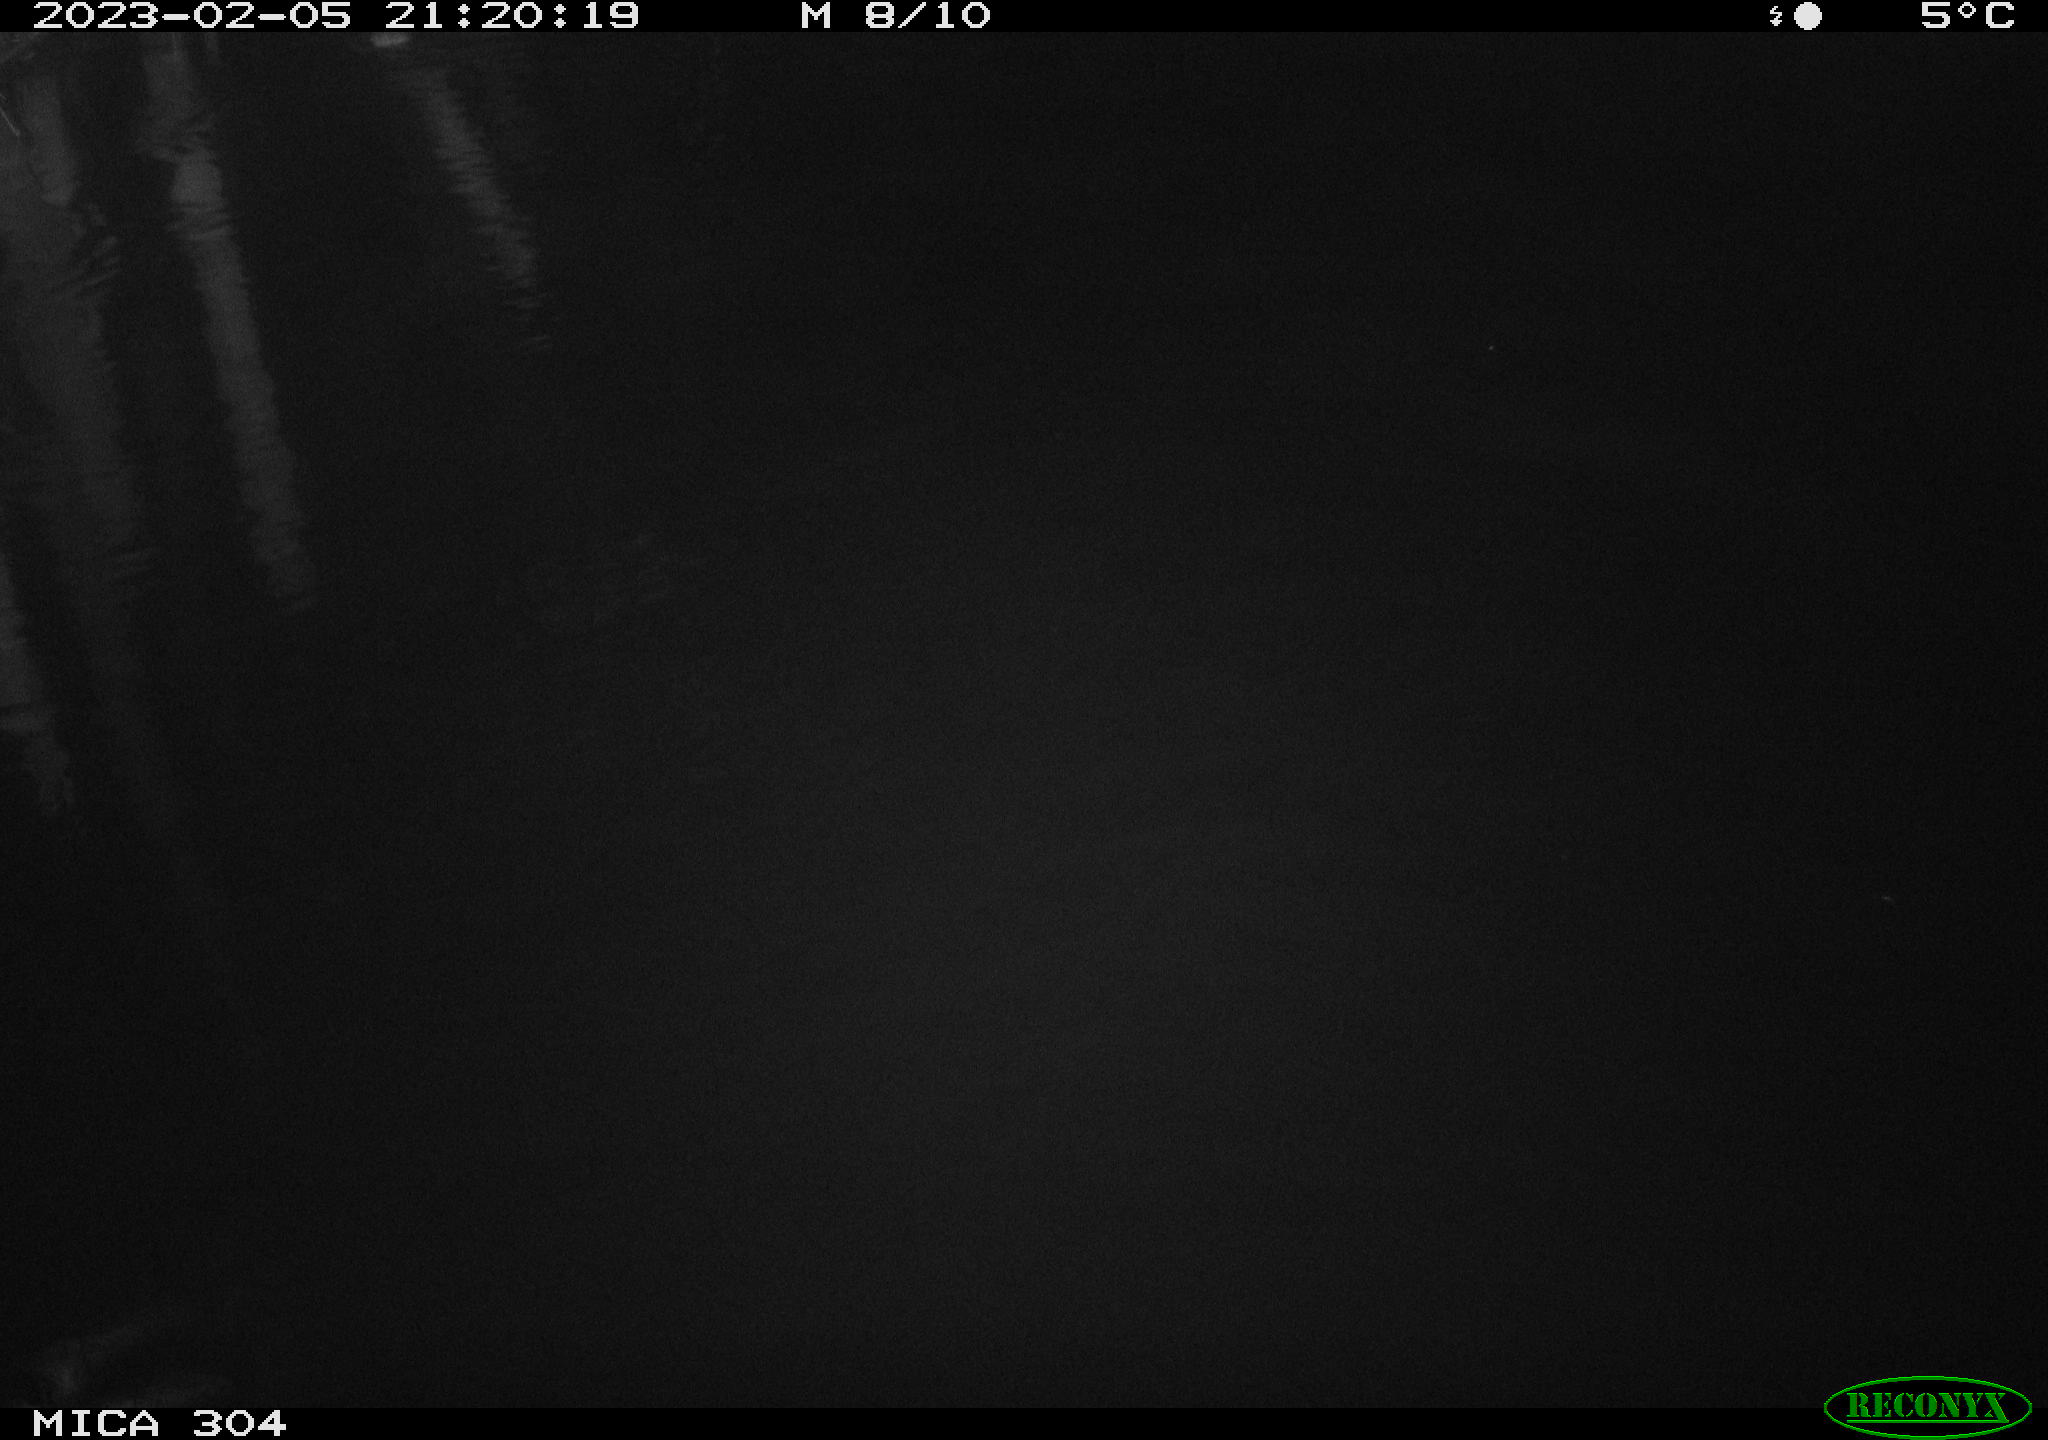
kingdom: Animalia
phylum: Chordata
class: Mammalia
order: Rodentia
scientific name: Rodentia
